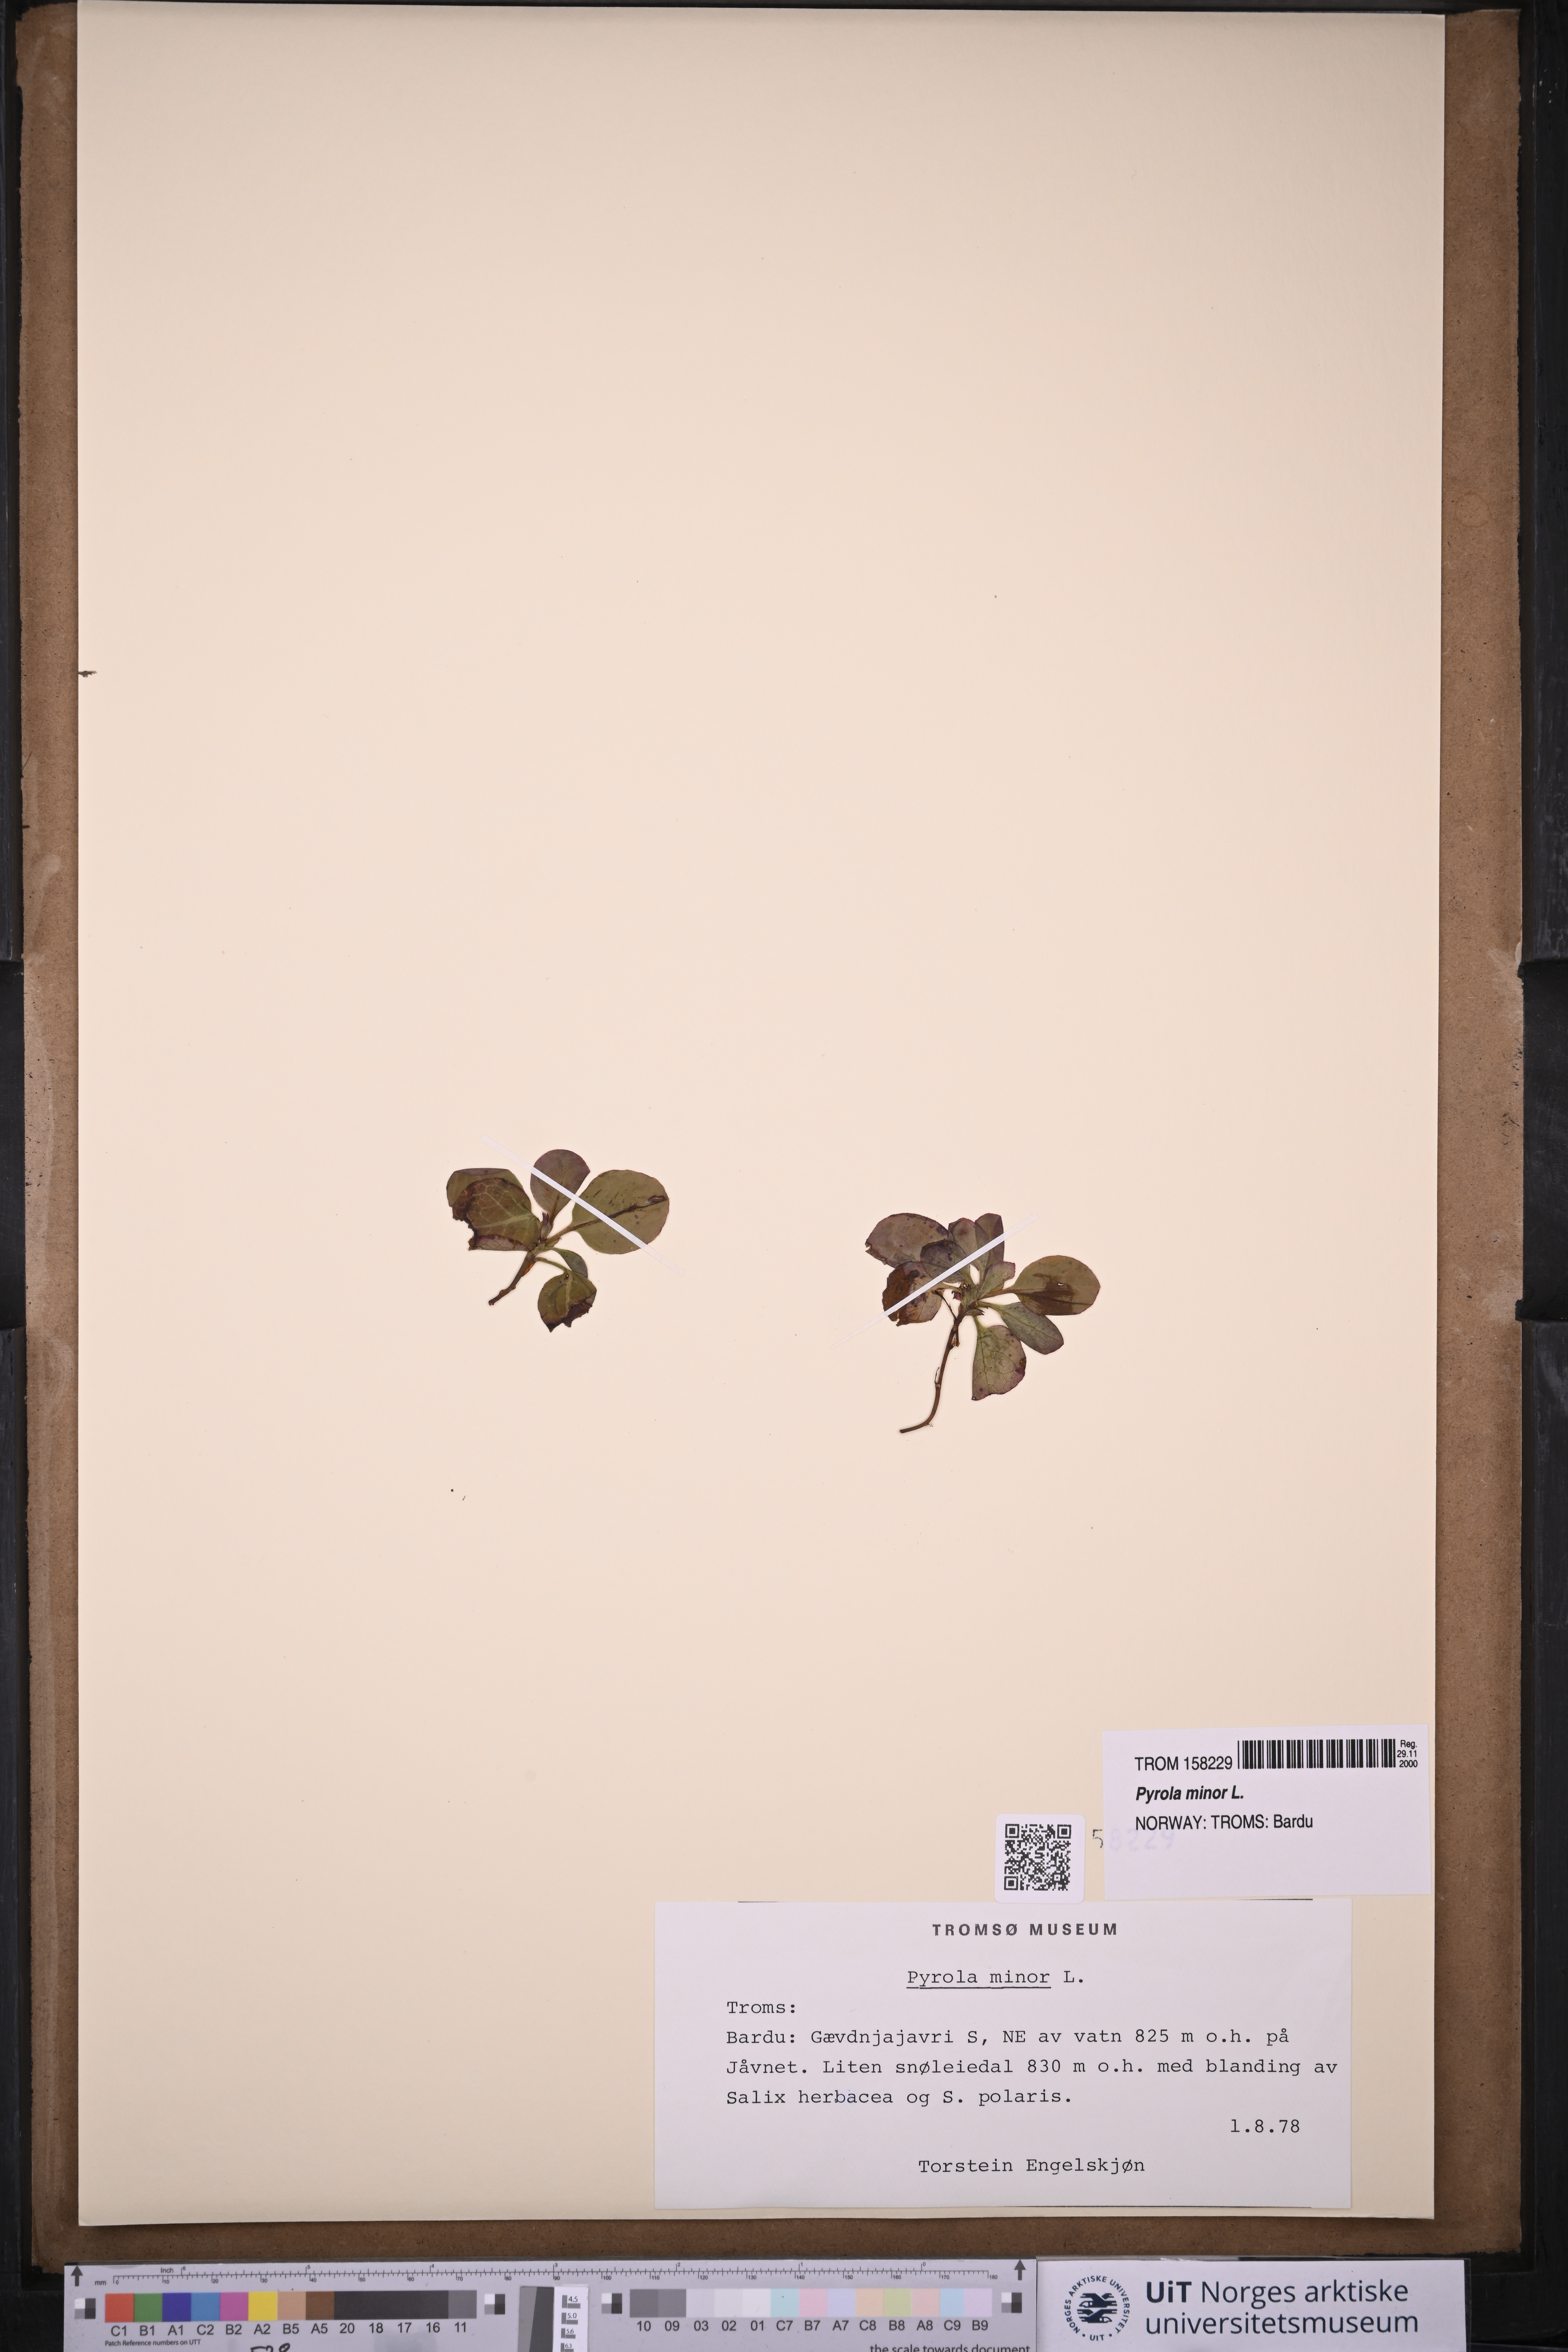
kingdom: Plantae
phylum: Tracheophyta
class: Magnoliopsida
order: Ericales
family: Ericaceae
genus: Pyrola
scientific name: Pyrola minor
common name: Common wintergreen
